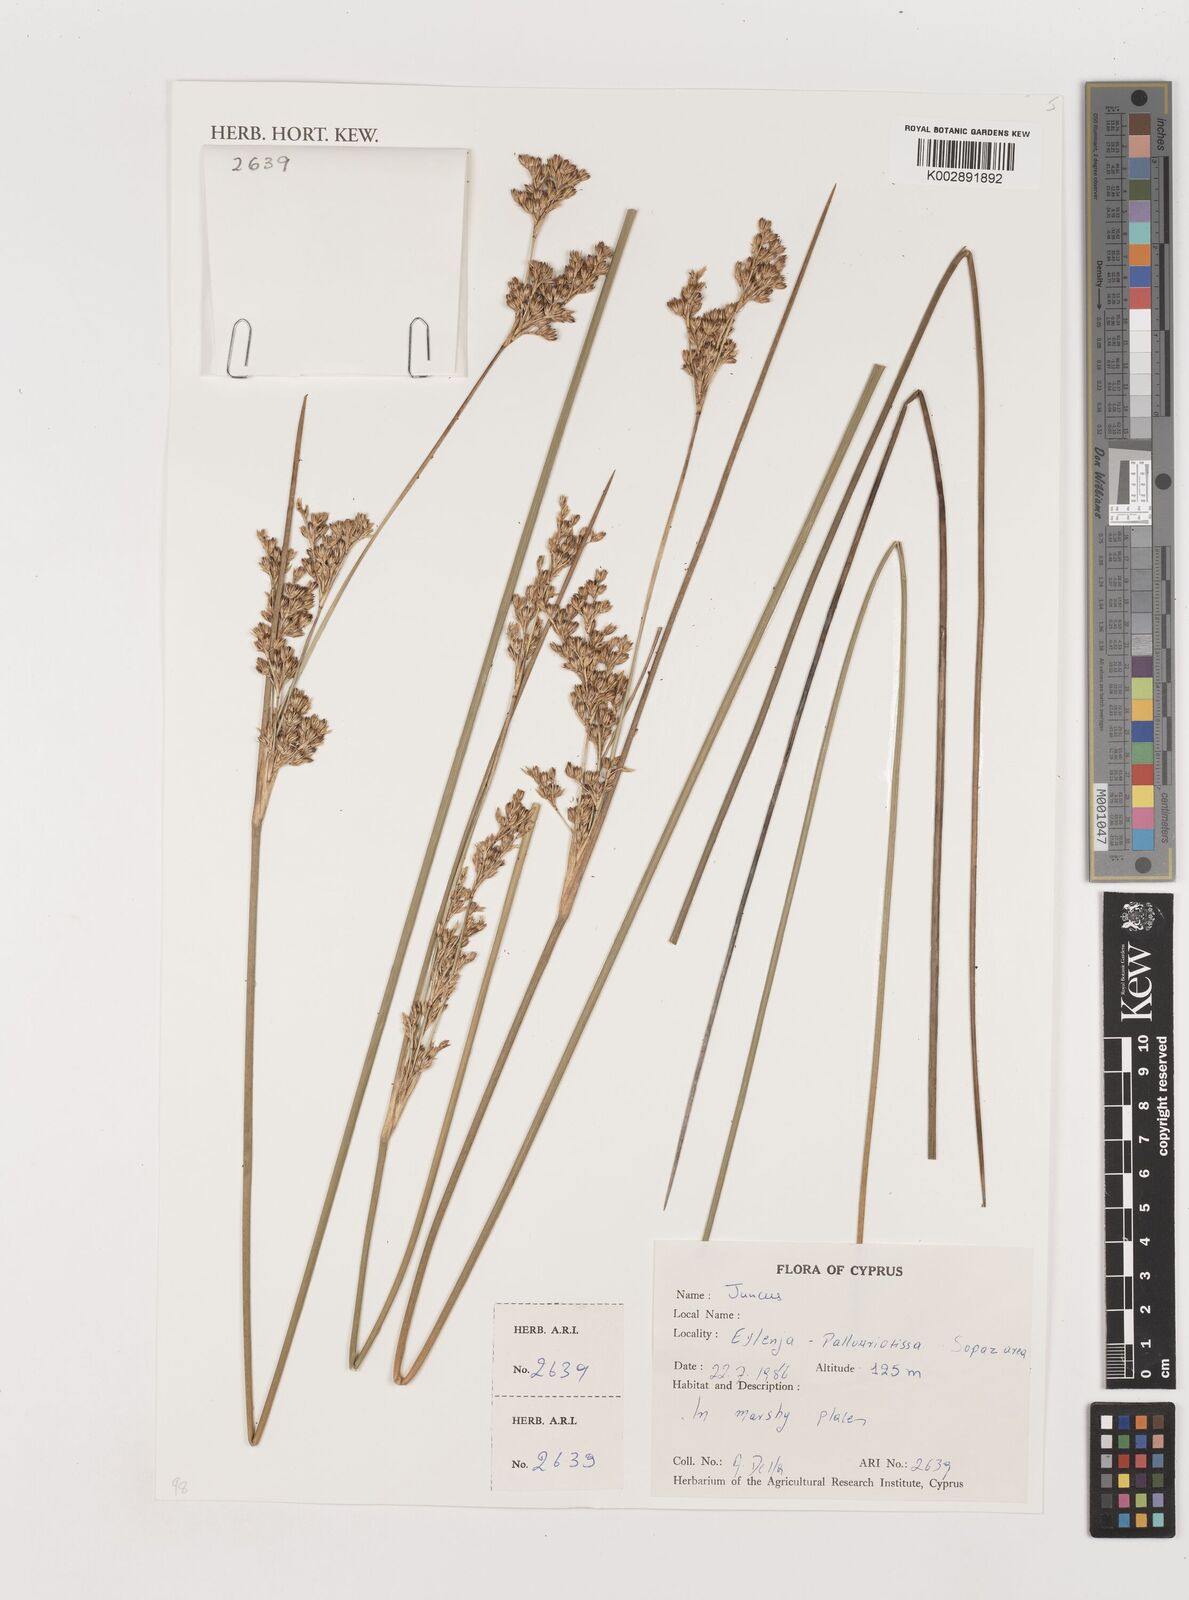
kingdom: Plantae
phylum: Tracheophyta
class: Liliopsida
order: Poales
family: Juncaceae
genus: Juncus
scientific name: Juncus
